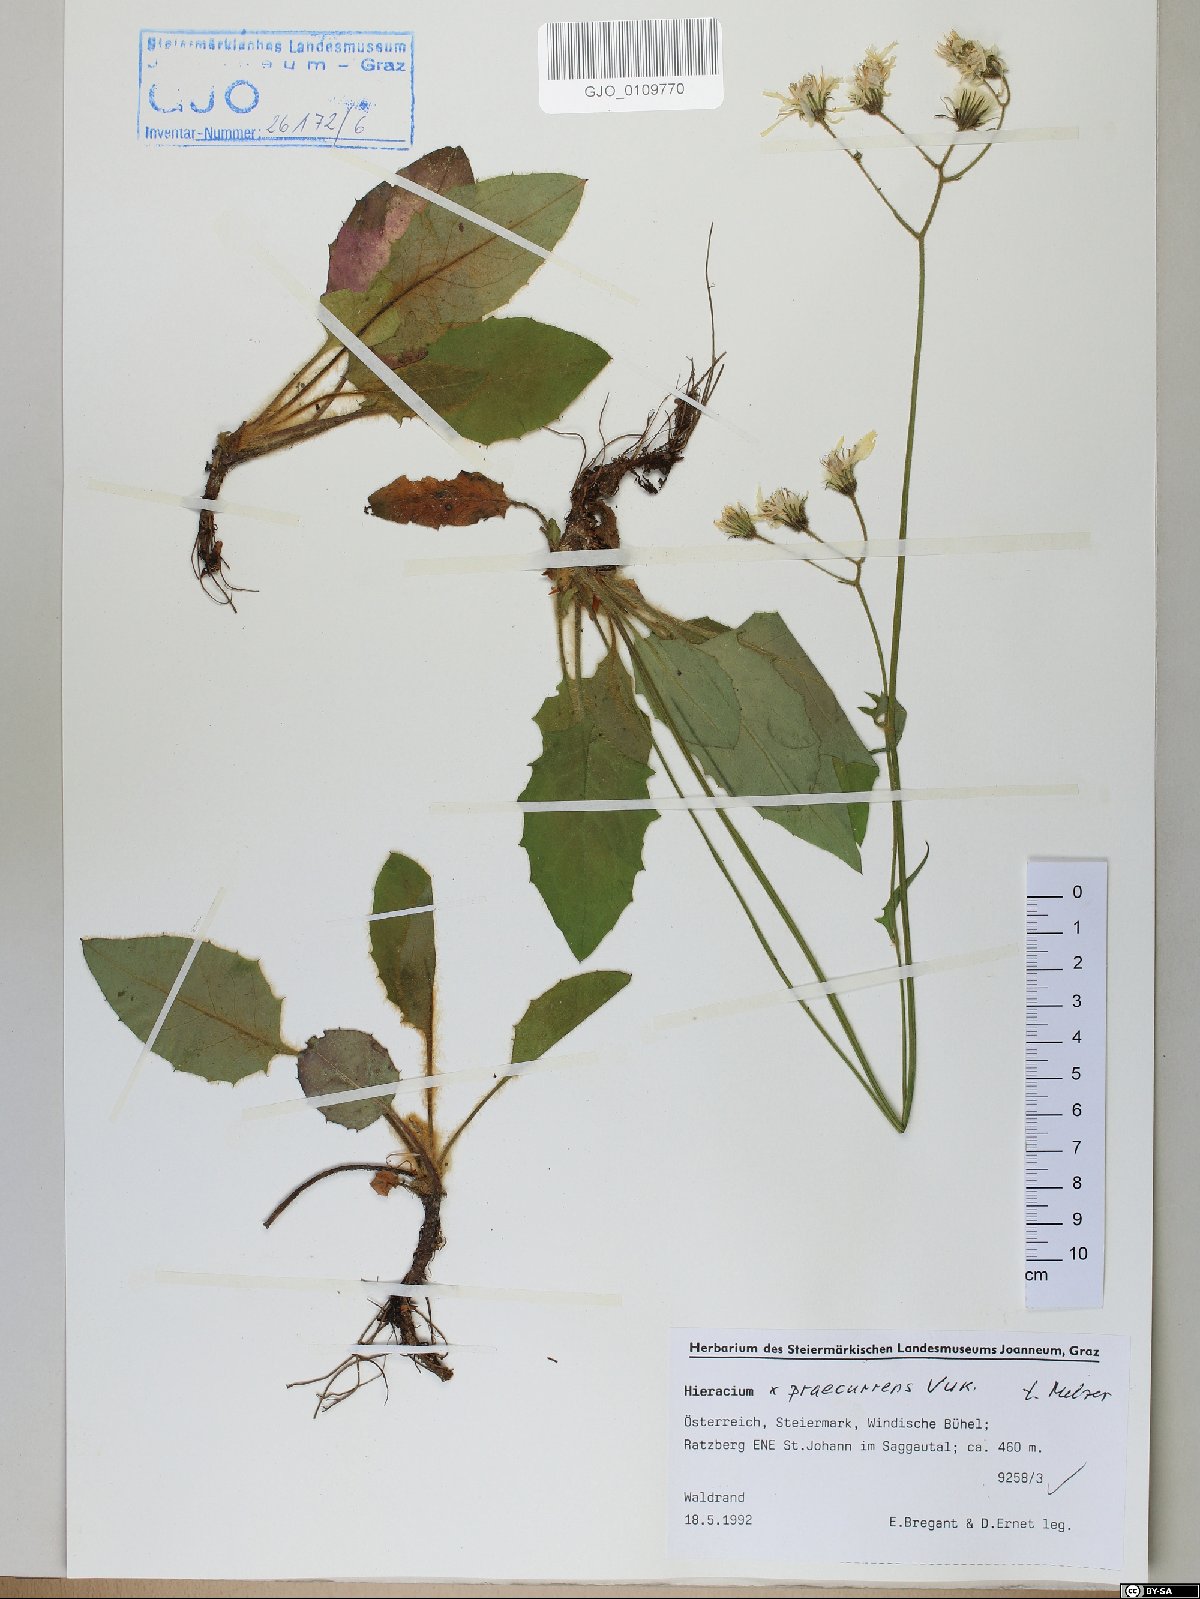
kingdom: Plantae
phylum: Tracheophyta
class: Magnoliopsida
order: Asterales
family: Asteraceae
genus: Hieracium
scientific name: Hieracium rotundatum
